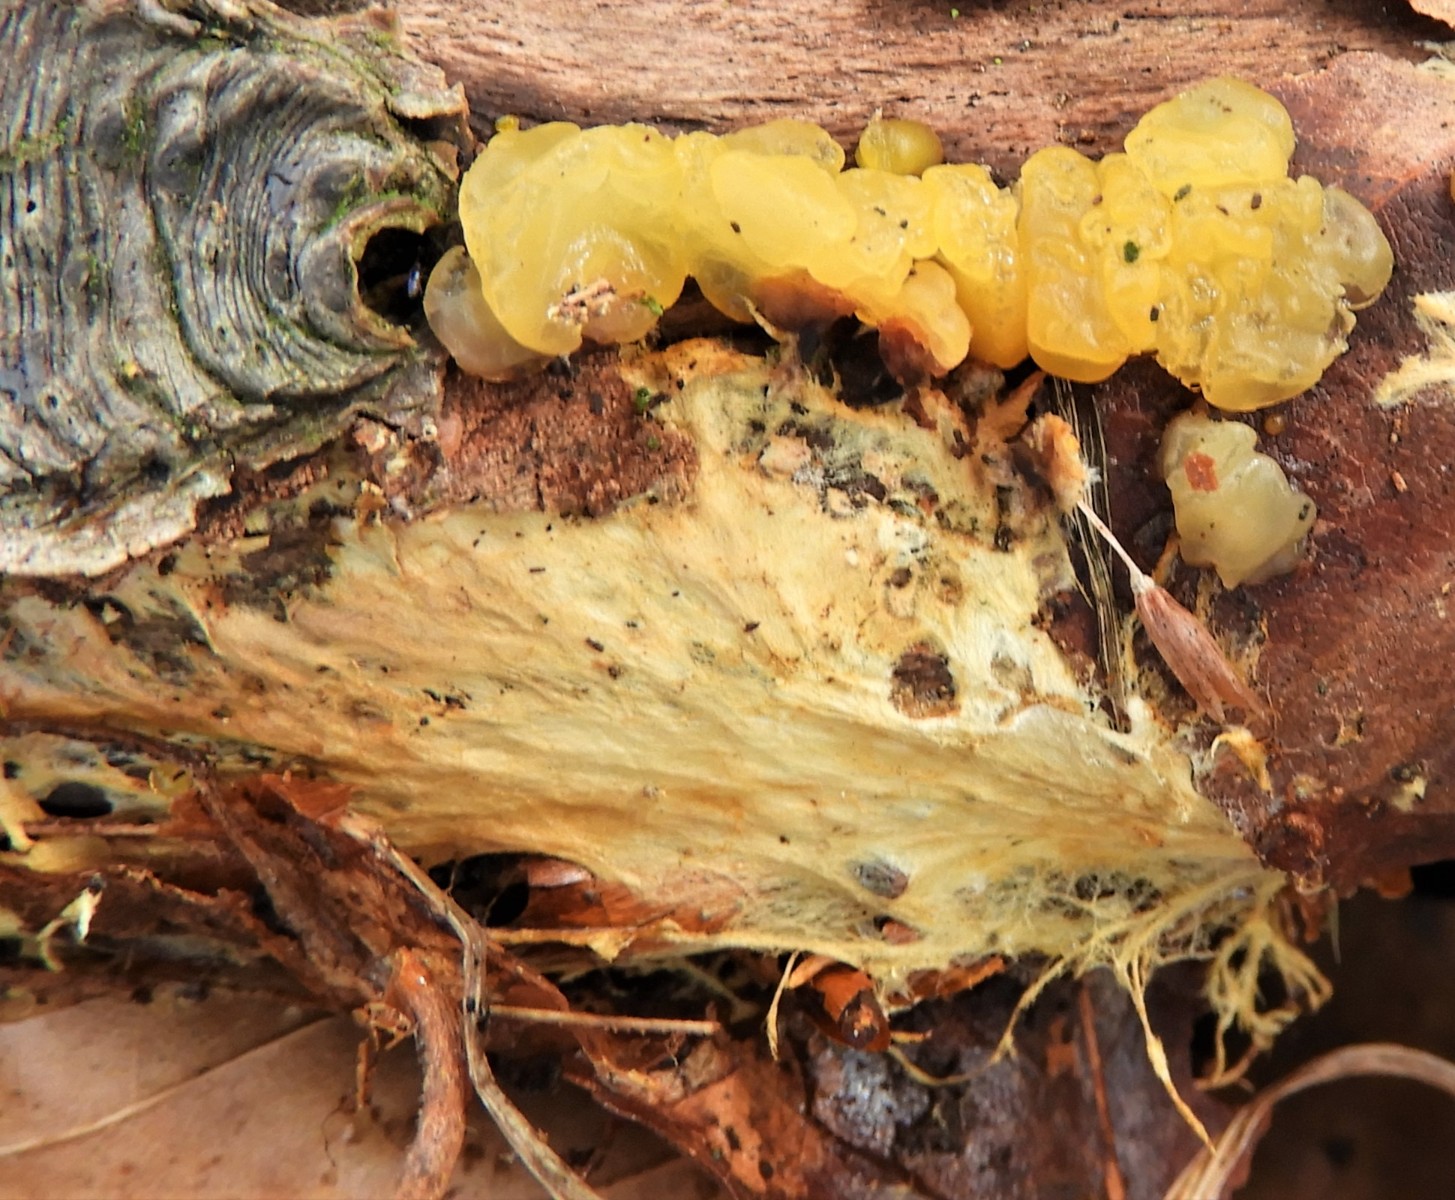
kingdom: Fungi
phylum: Basidiomycota
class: Dacrymycetes
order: Dacrymycetales
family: Dacrymycetaceae
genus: Dacrymyces
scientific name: Dacrymyces lacrymalis
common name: rynket tåresvamp
